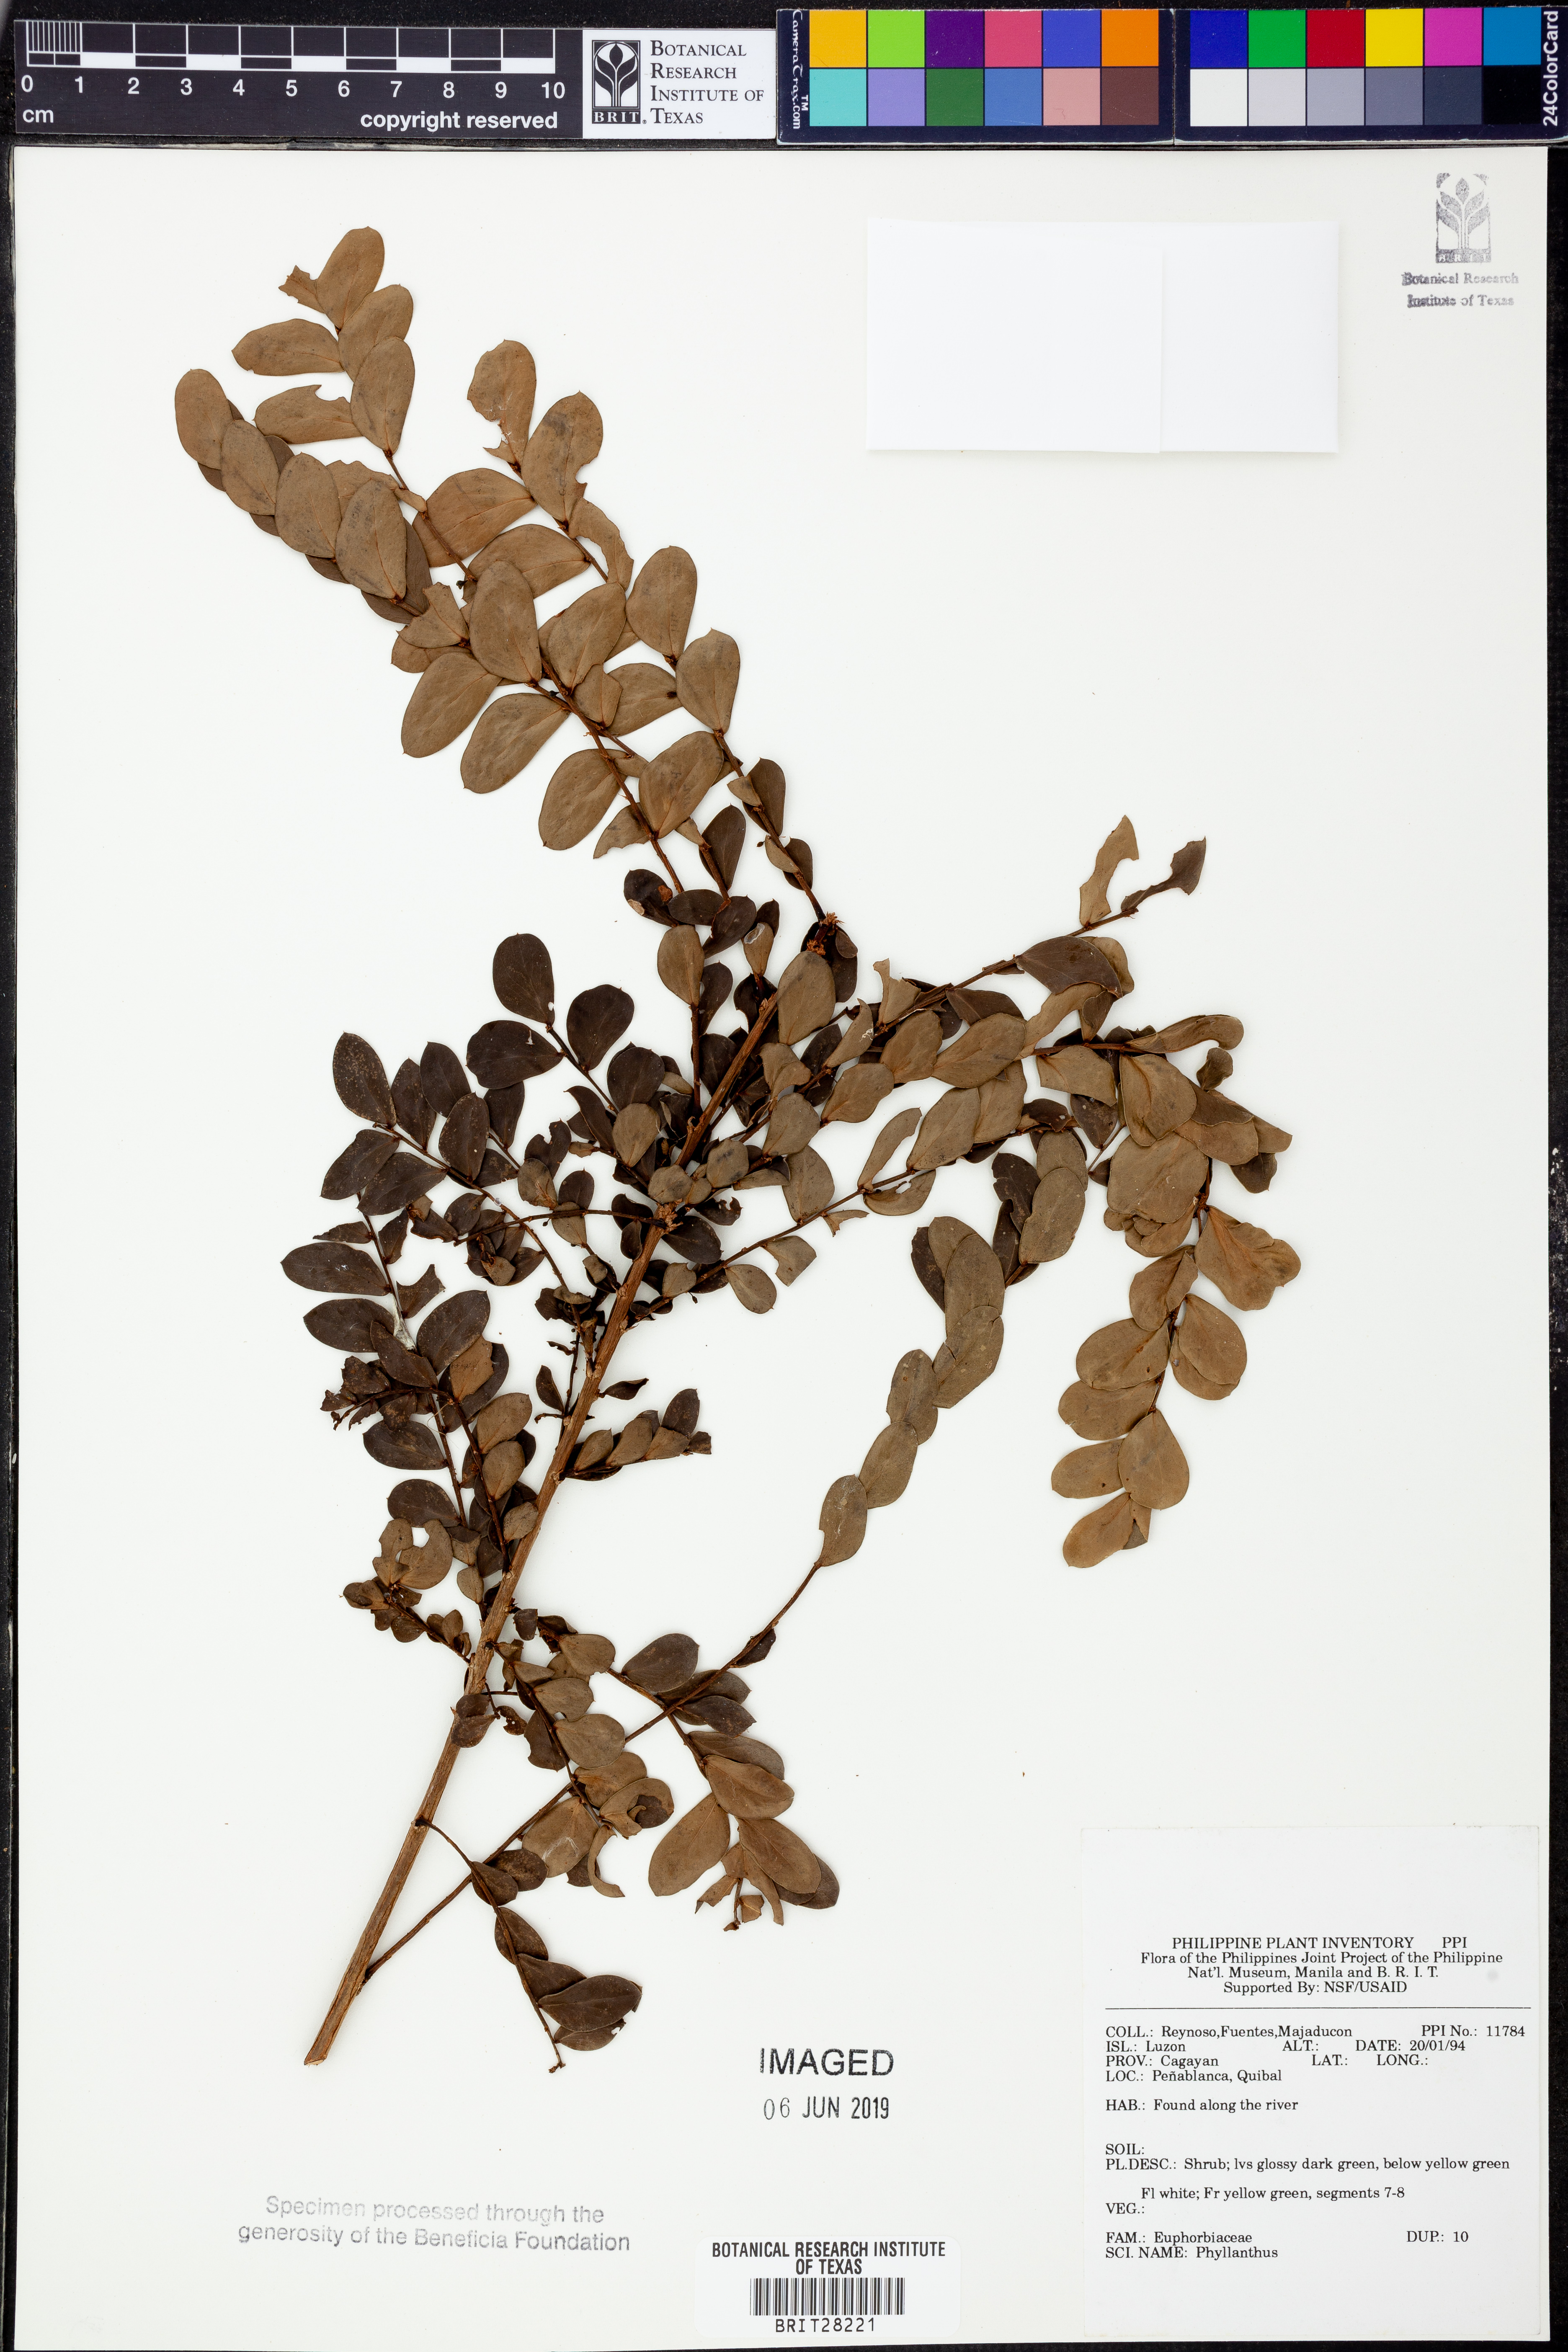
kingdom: Plantae
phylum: Tracheophyta
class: Magnoliopsida
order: Malpighiales
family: Phyllanthaceae
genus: Phyllanthus
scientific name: Phyllanthus
